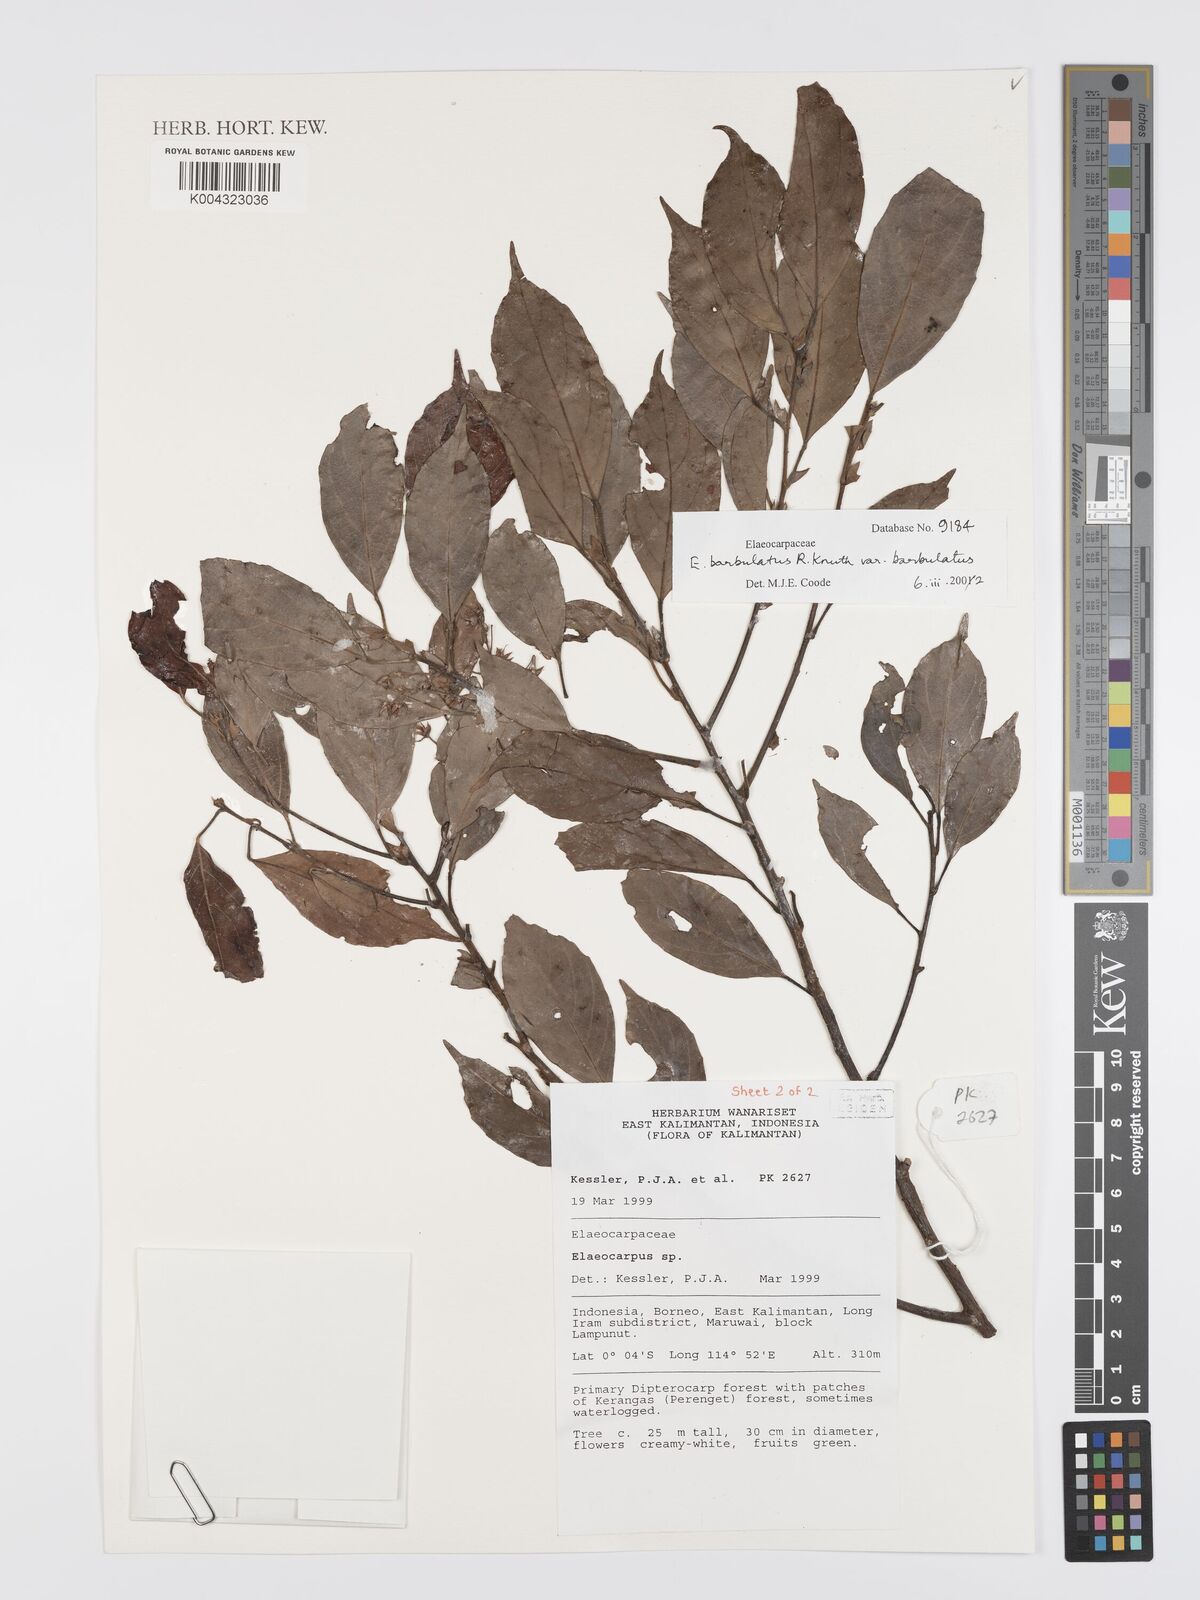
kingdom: Plantae
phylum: Tracheophyta
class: Magnoliopsida
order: Oxalidales
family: Elaeocarpaceae
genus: Elaeocarpus
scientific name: Elaeocarpus barbulatus
